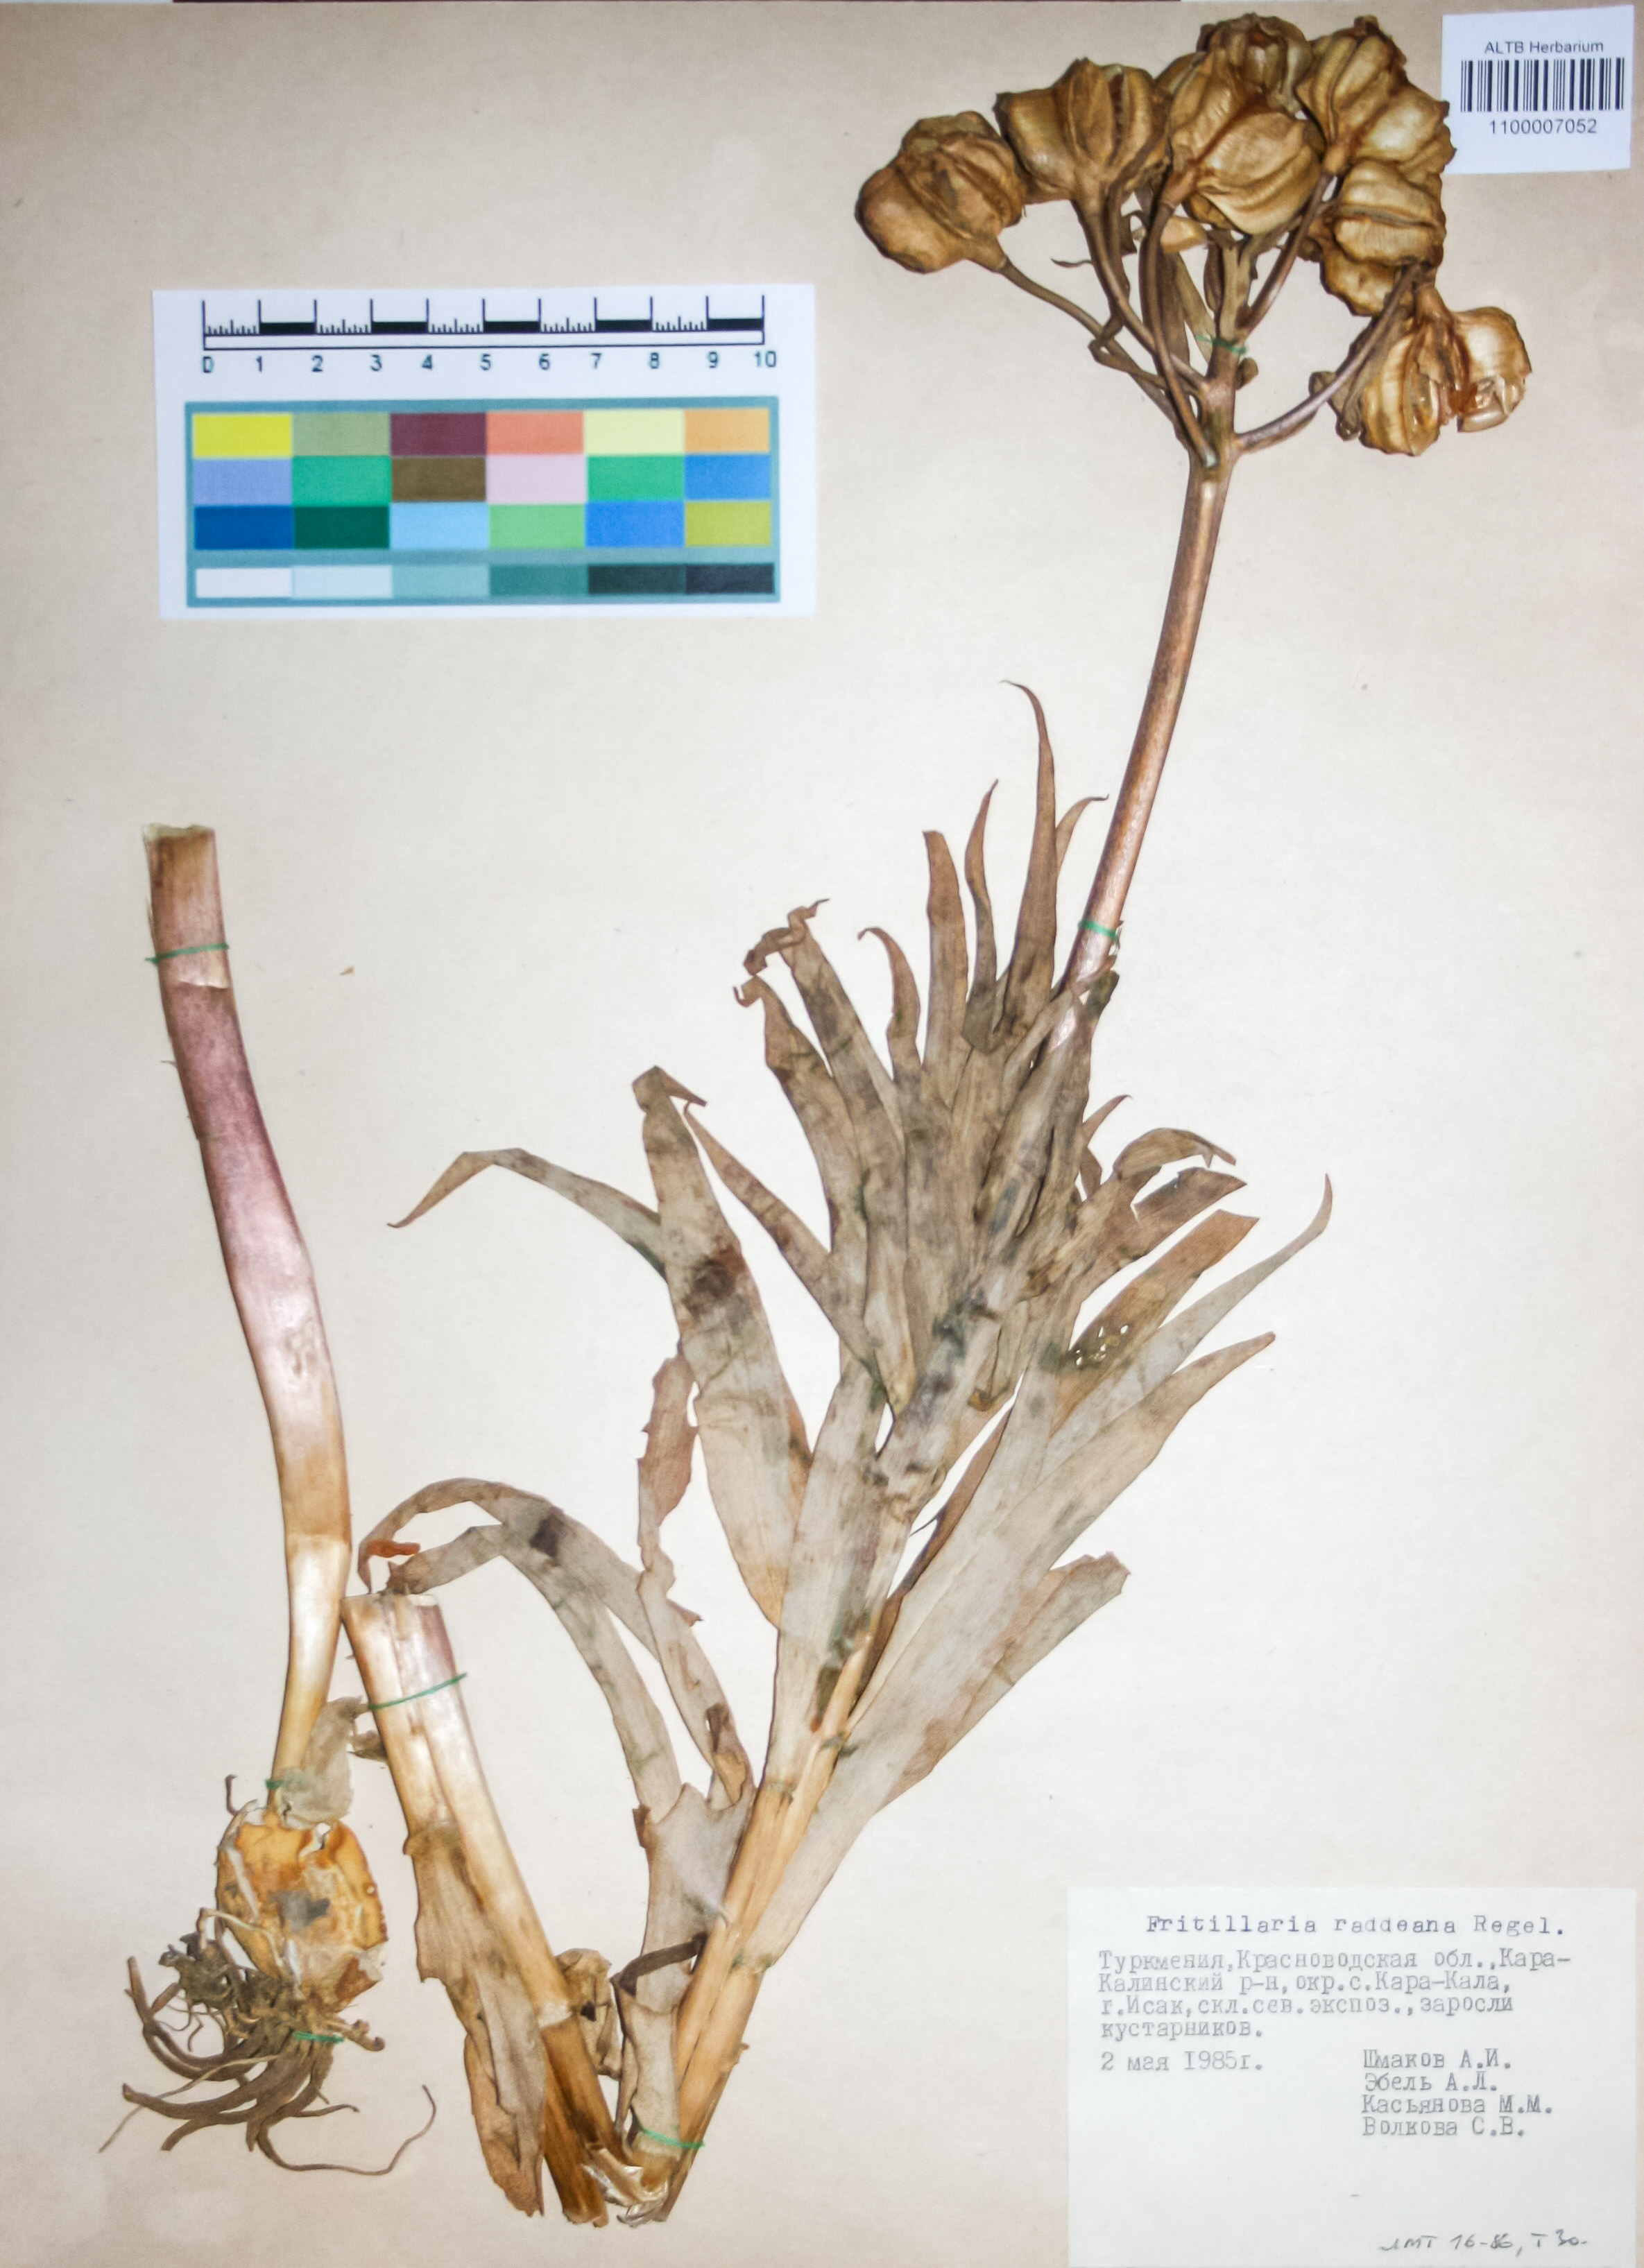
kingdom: Plantae
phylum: Tracheophyta
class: Liliopsida
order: Liliales
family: Liliaceae
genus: Fritillaria
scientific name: Fritillaria raddeana
